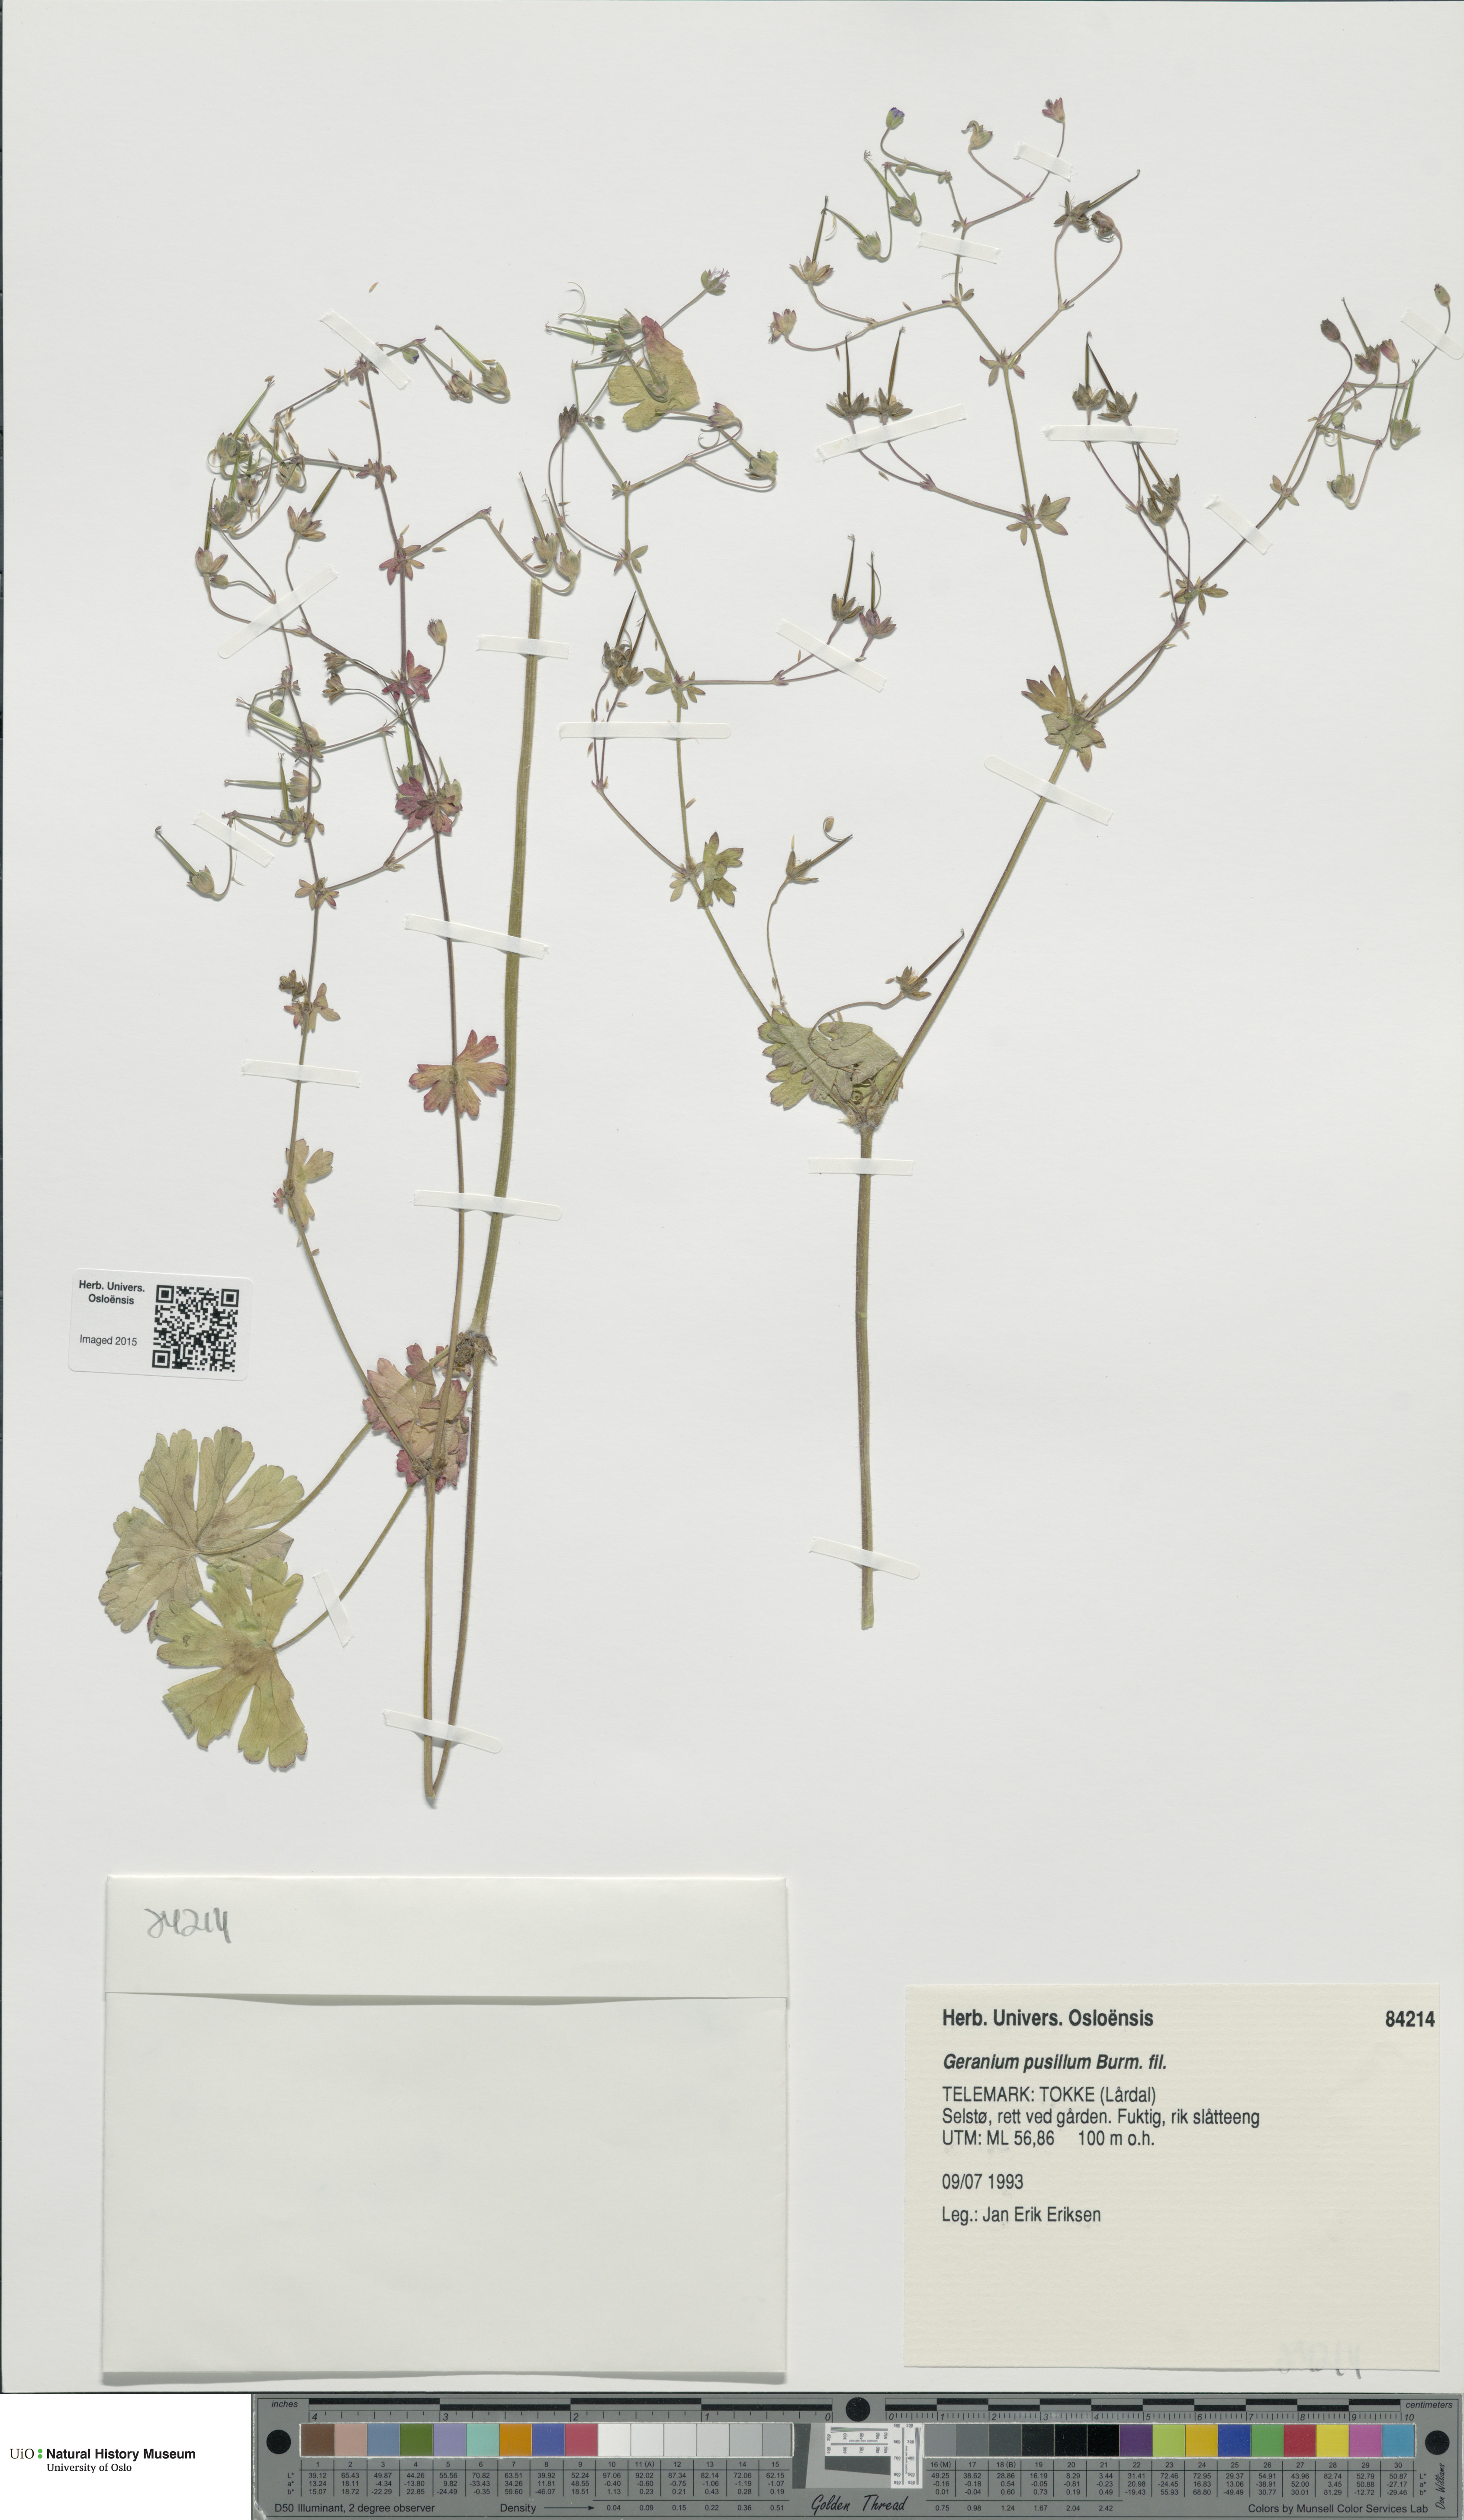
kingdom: Plantae
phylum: Tracheophyta
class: Magnoliopsida
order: Geraniales
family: Geraniaceae
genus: Geranium
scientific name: Geranium pusillum
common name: Small geranium
